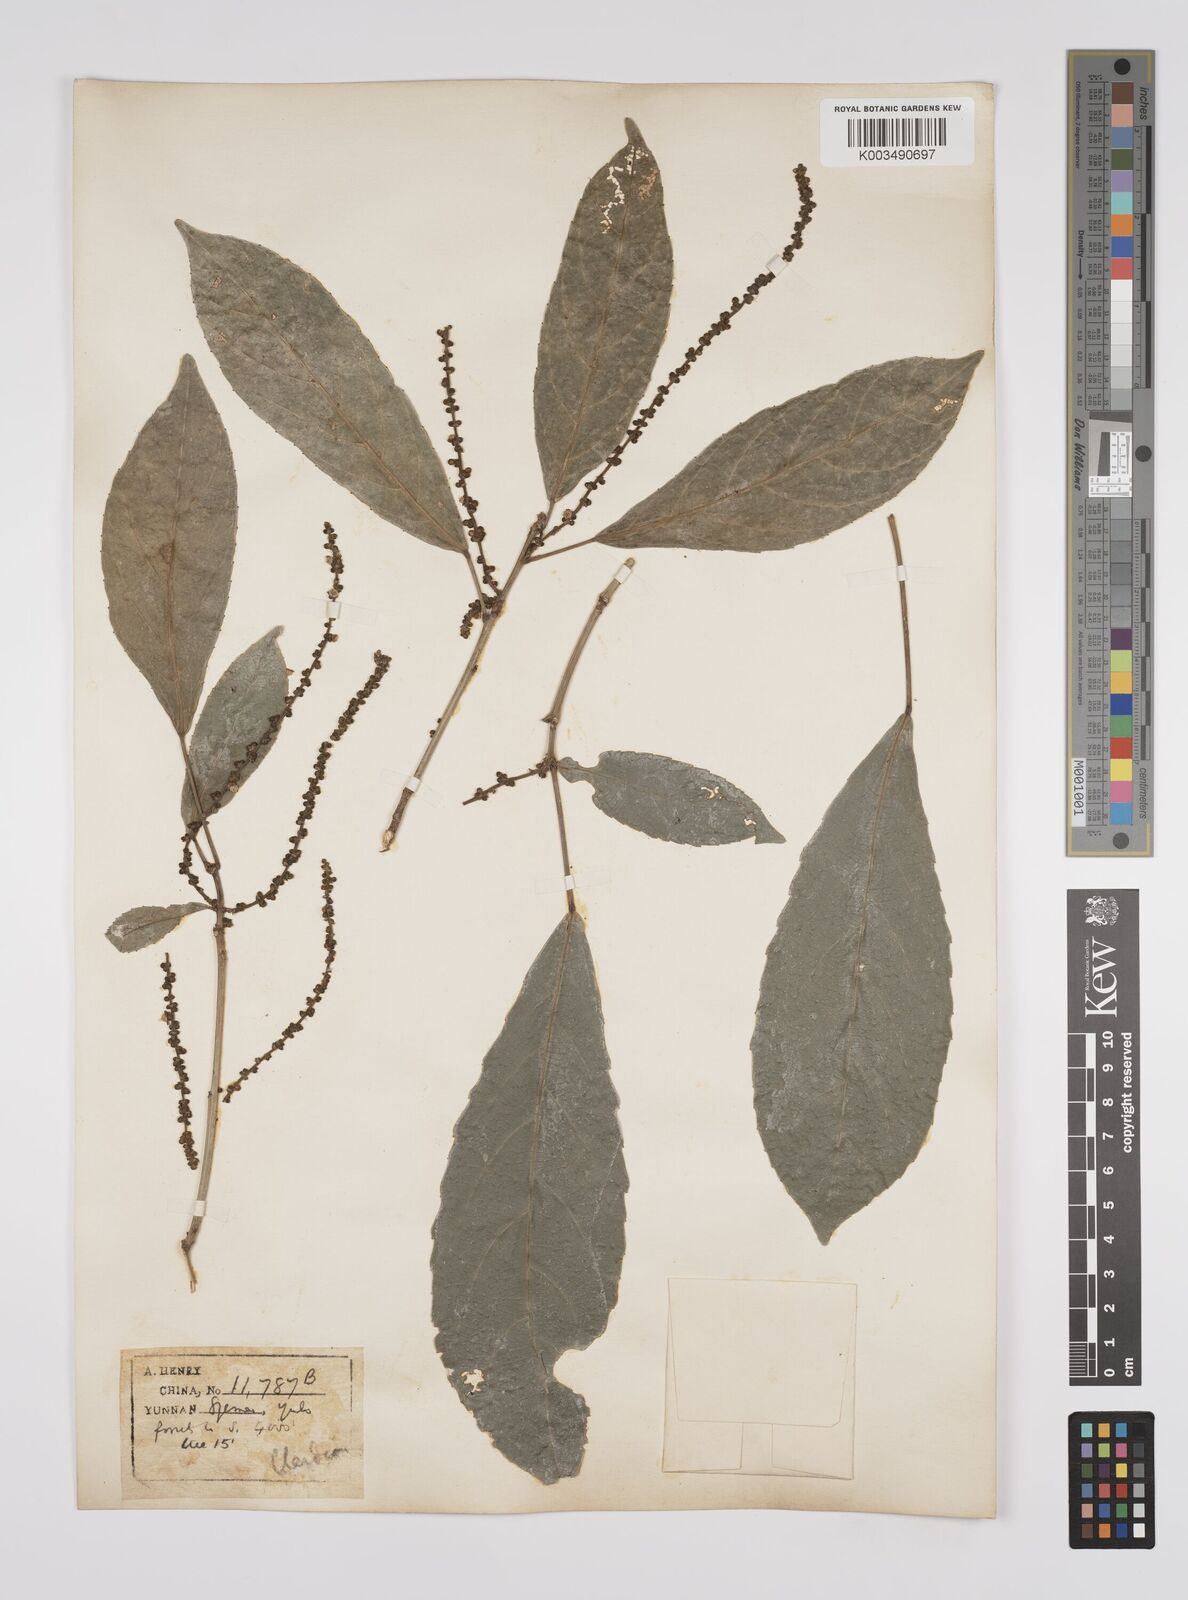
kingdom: Plantae
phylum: Tracheophyta
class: Magnoliopsida
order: Malpighiales
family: Euphorbiaceae
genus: Cleidion
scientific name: Cleidion brevipetiolatum
